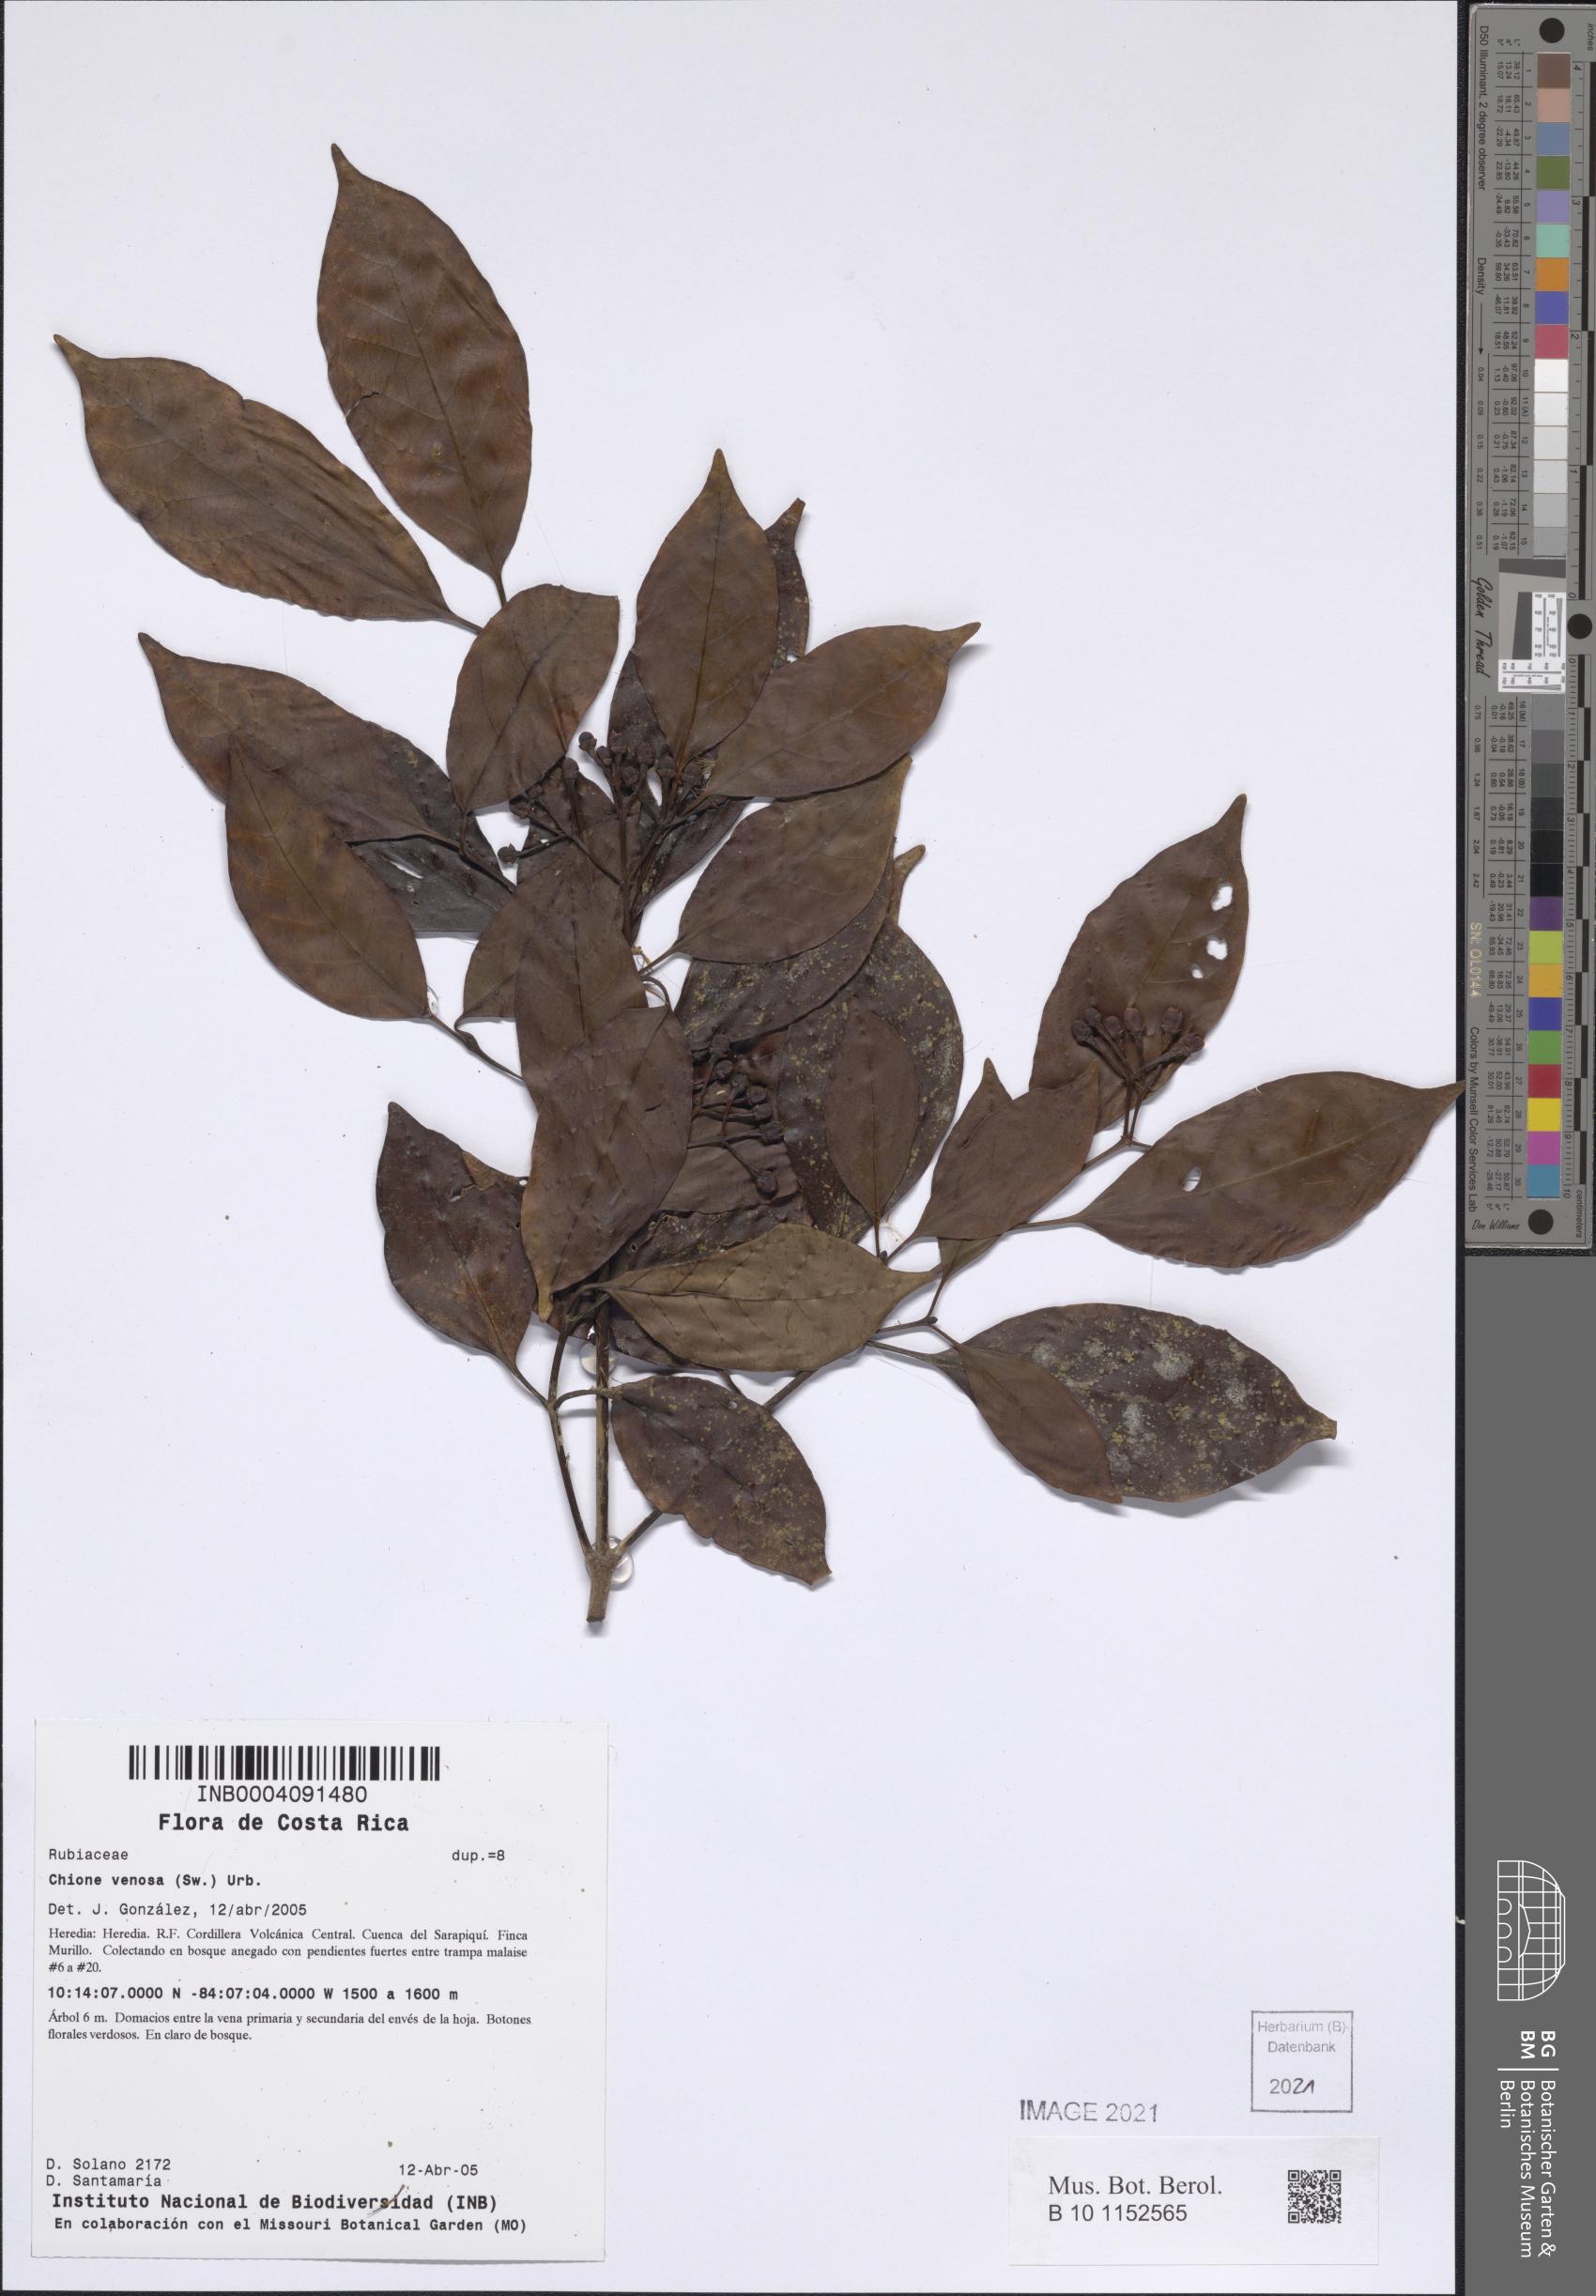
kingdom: Plantae
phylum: Tracheophyta
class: Magnoliopsida
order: Gentianales
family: Rubiaceae
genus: Chione
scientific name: Chione venosa
